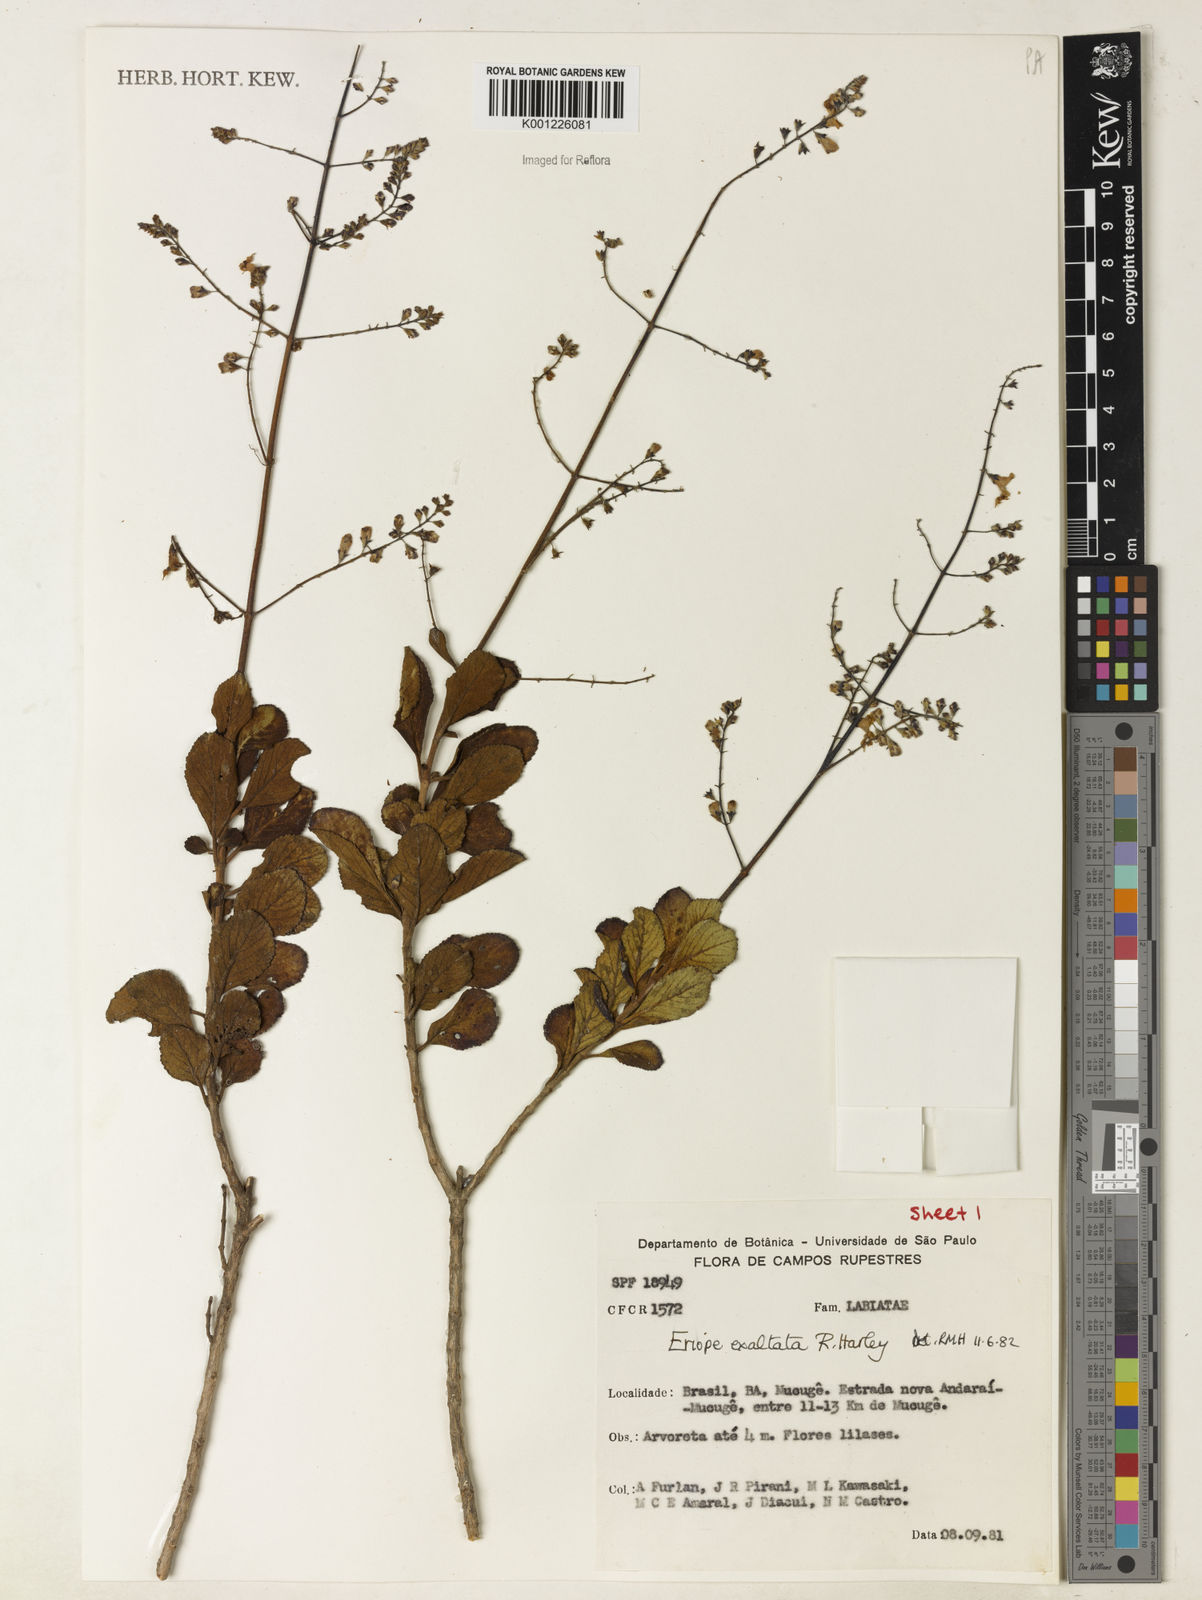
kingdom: Plantae
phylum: Tracheophyta
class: Magnoliopsida
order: Lamiales
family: Lamiaceae
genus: Eriope
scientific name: Eriope exaltata
